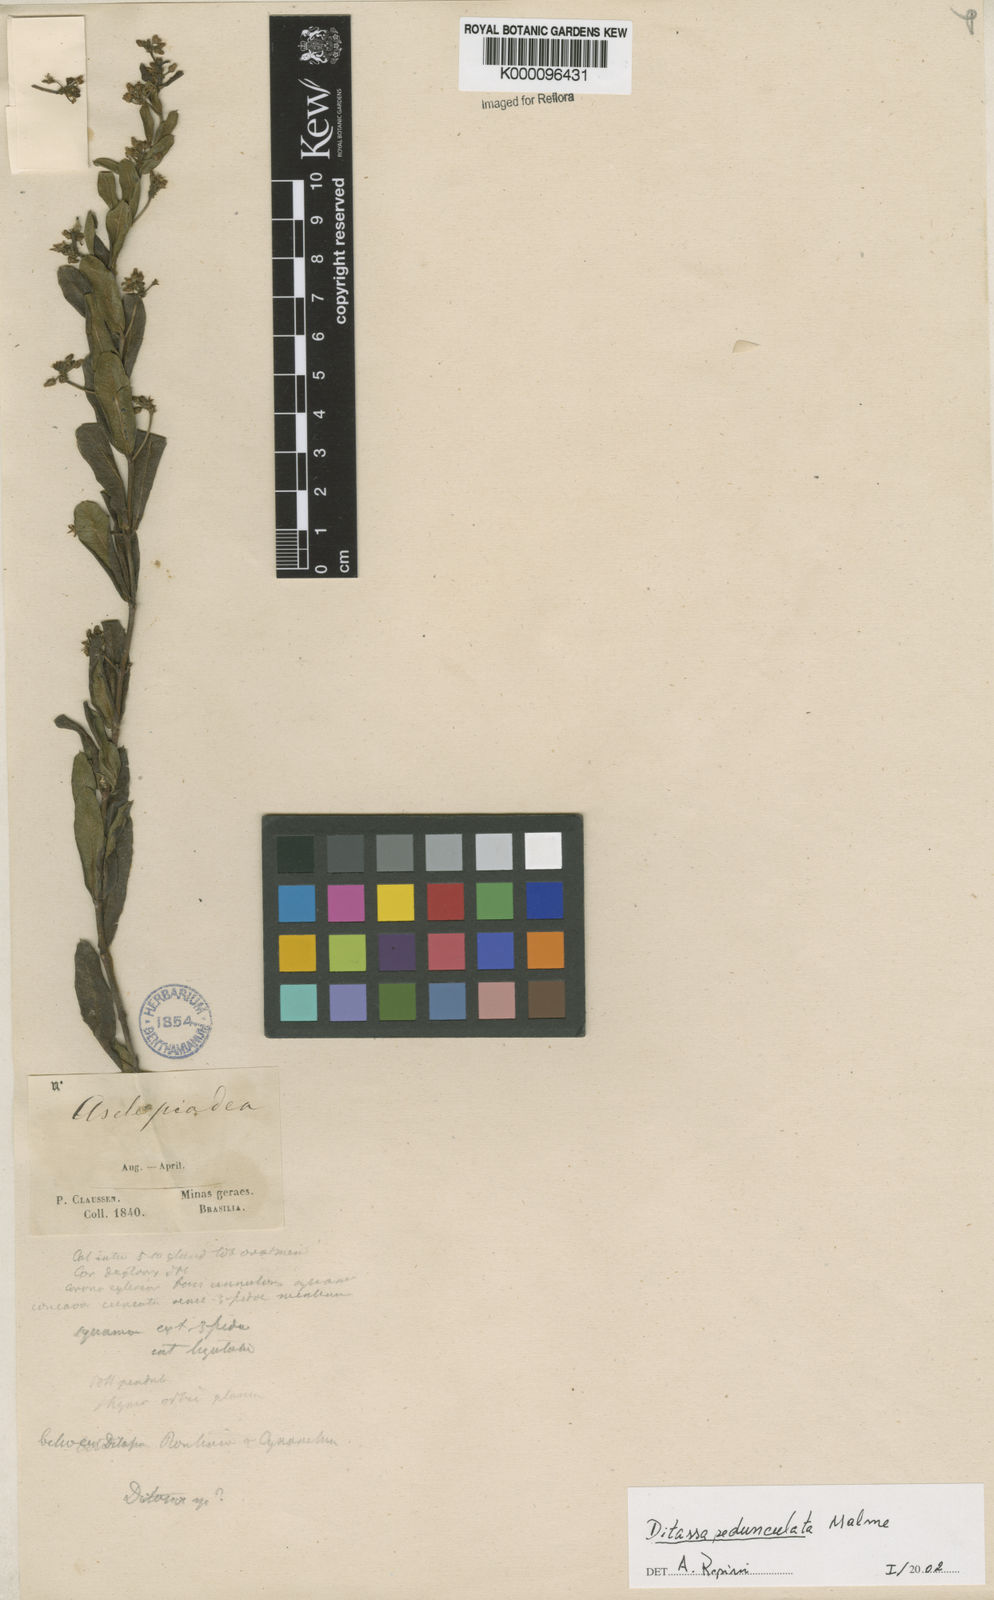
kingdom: Plantae
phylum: Tracheophyta
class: Magnoliopsida
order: Gentianales
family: Apocynaceae
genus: Ditassa
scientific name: Ditassa pedunculata
